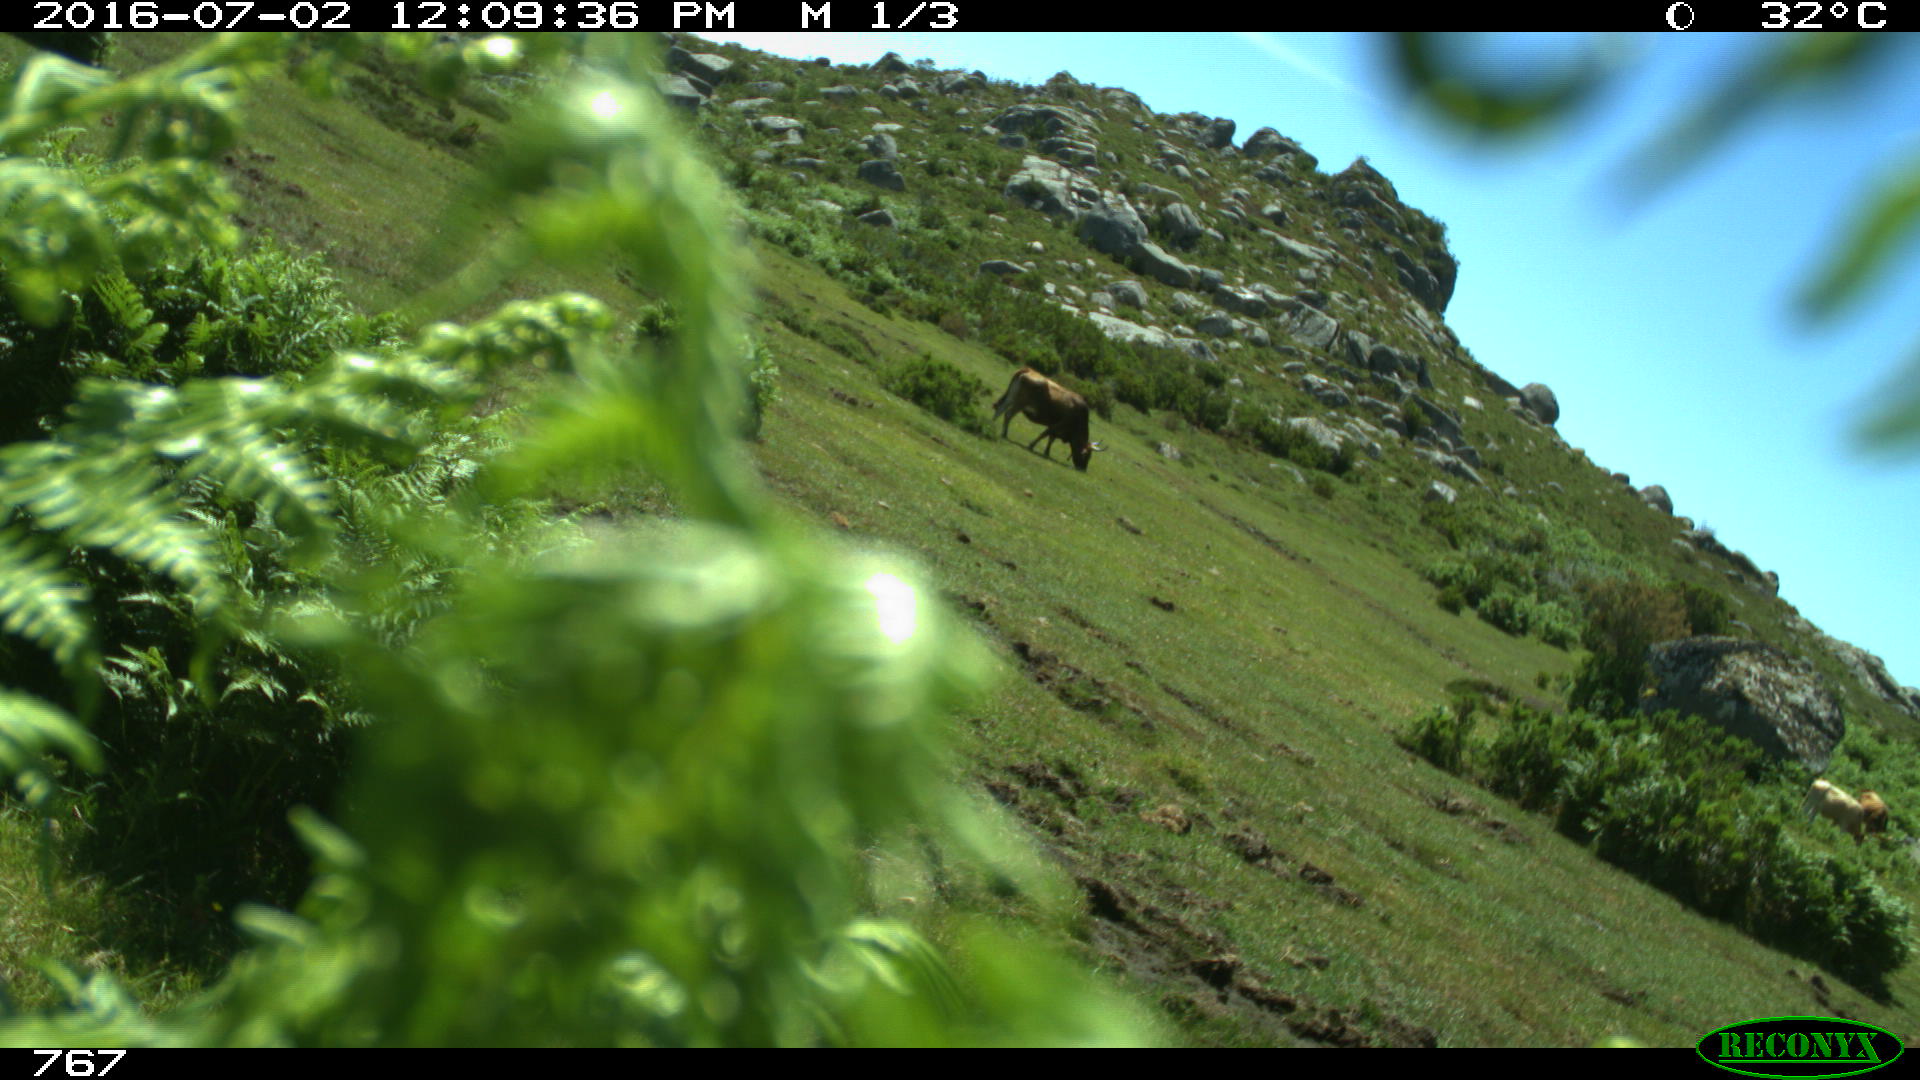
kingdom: Animalia
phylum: Chordata
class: Mammalia
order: Artiodactyla
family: Bovidae
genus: Bos
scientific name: Bos taurus
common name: Domesticated cattle
